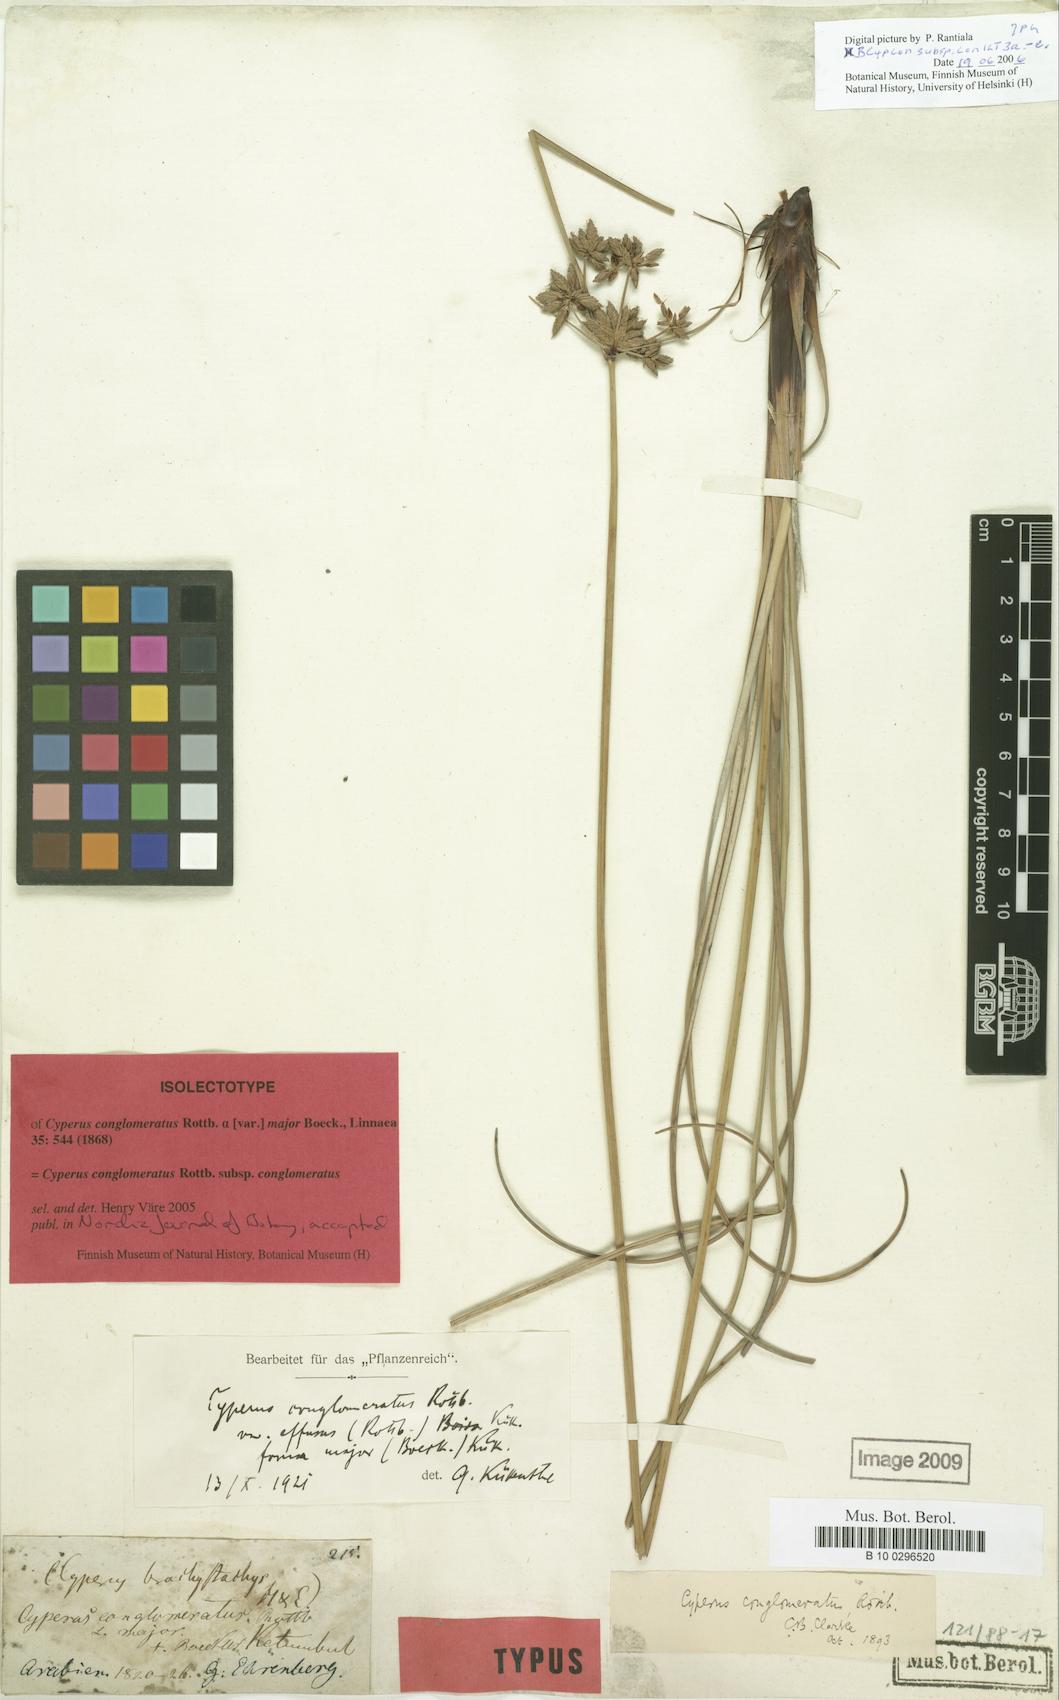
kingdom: Plantae
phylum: Tracheophyta
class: Liliopsida
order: Poales
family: Cyperaceae
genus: Cyperus
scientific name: Cyperus conglomeratus
